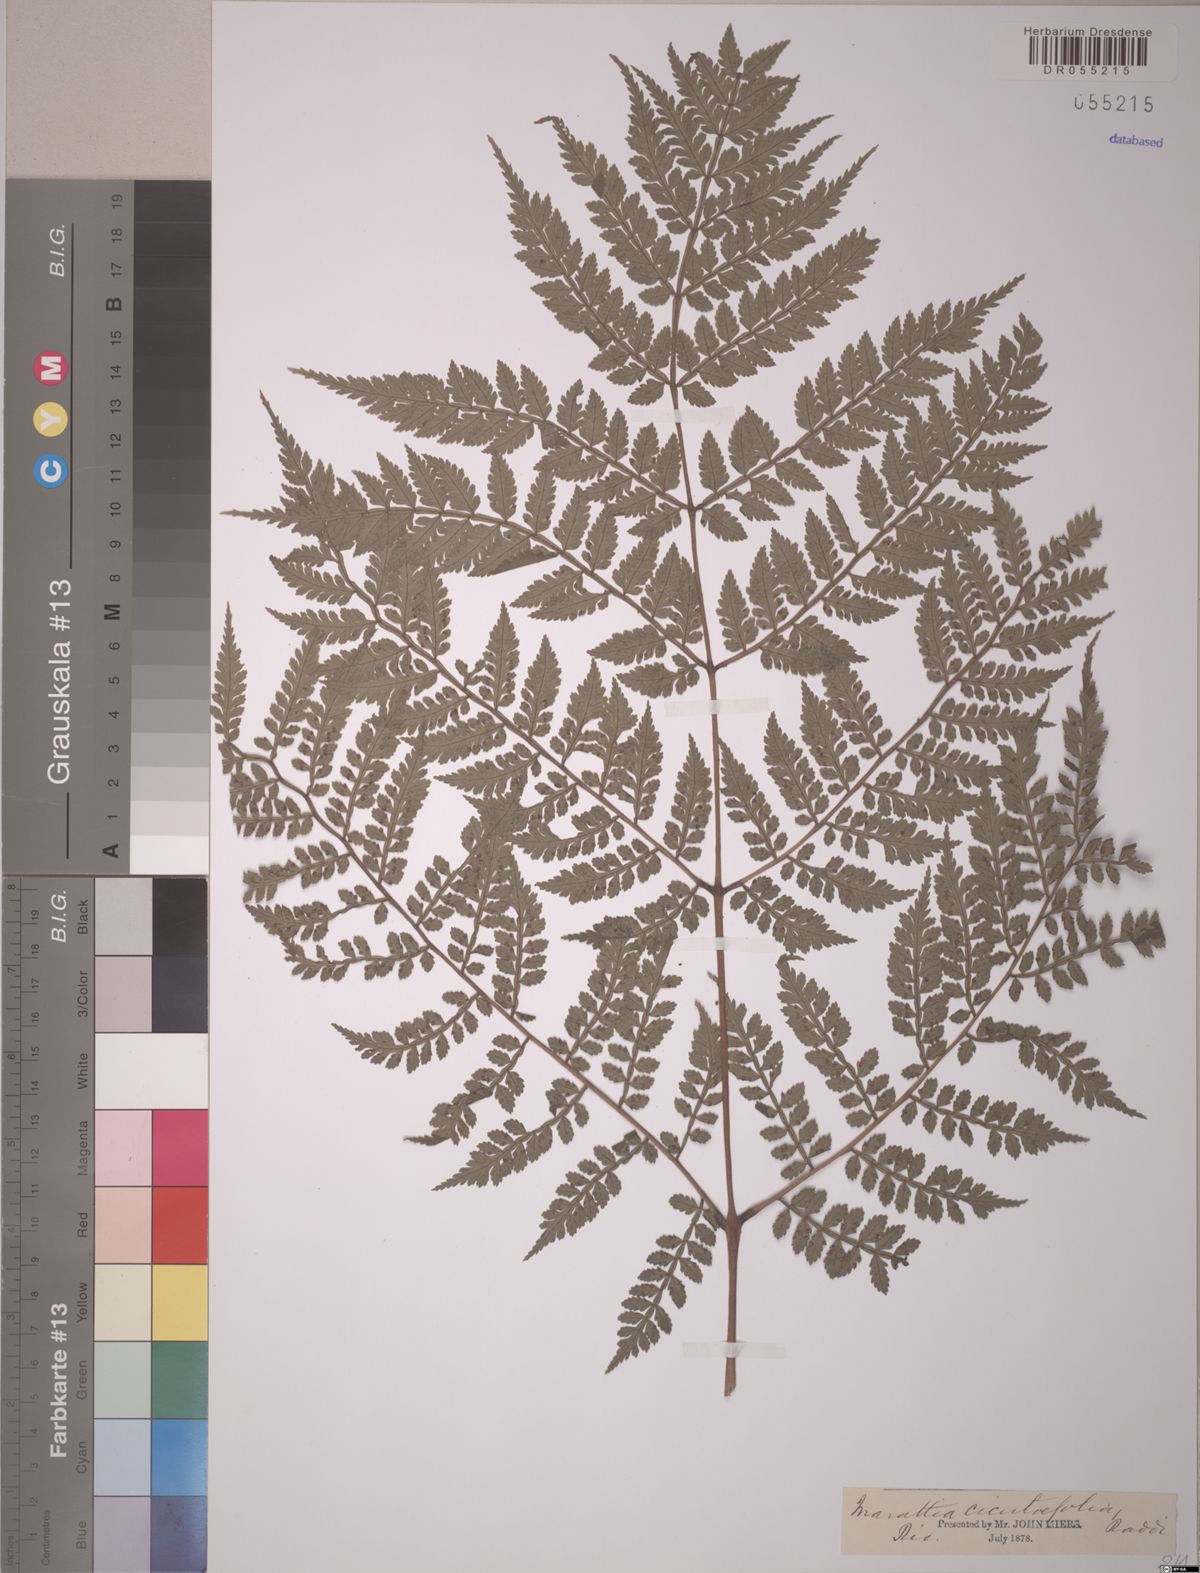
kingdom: Plantae
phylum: Tracheophyta
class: Polypodiopsida
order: Marattiales
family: Marattiaceae
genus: Eupodium
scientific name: Eupodium cicutifolium
